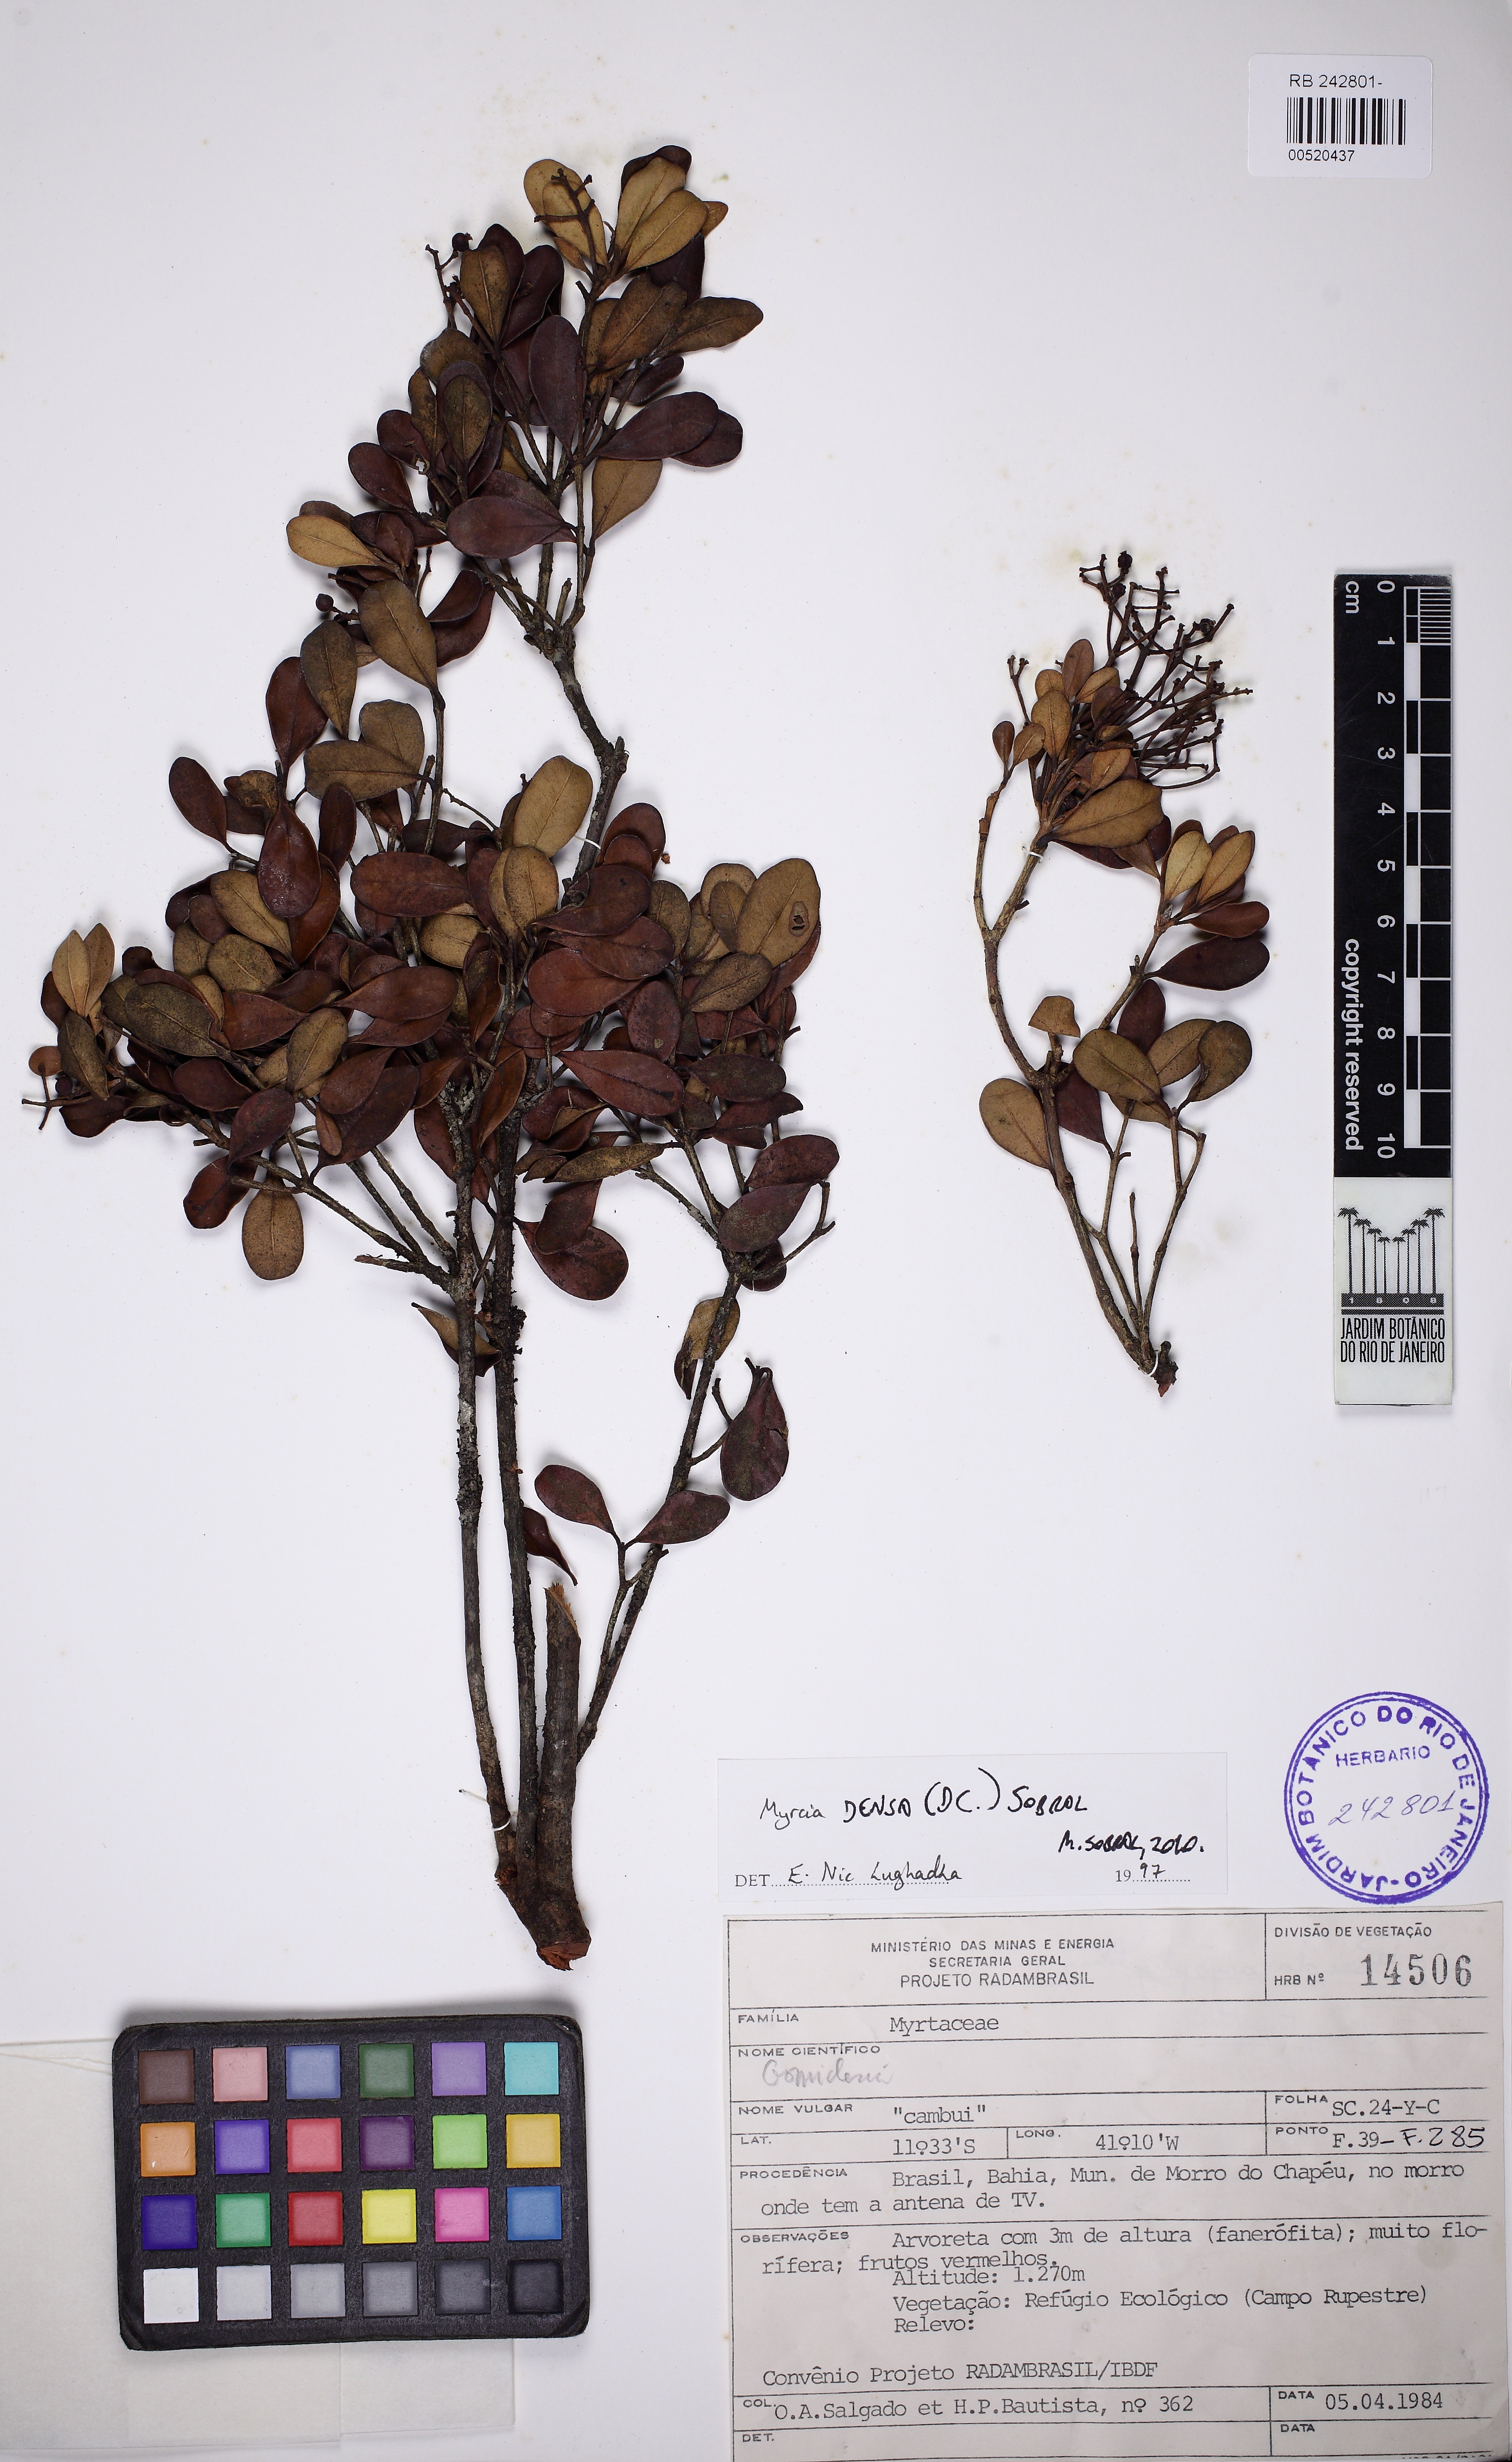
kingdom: Plantae
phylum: Tracheophyta
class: Magnoliopsida
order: Myrtales
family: Myrtaceae
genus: Myrcia
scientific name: Myrcia densa
